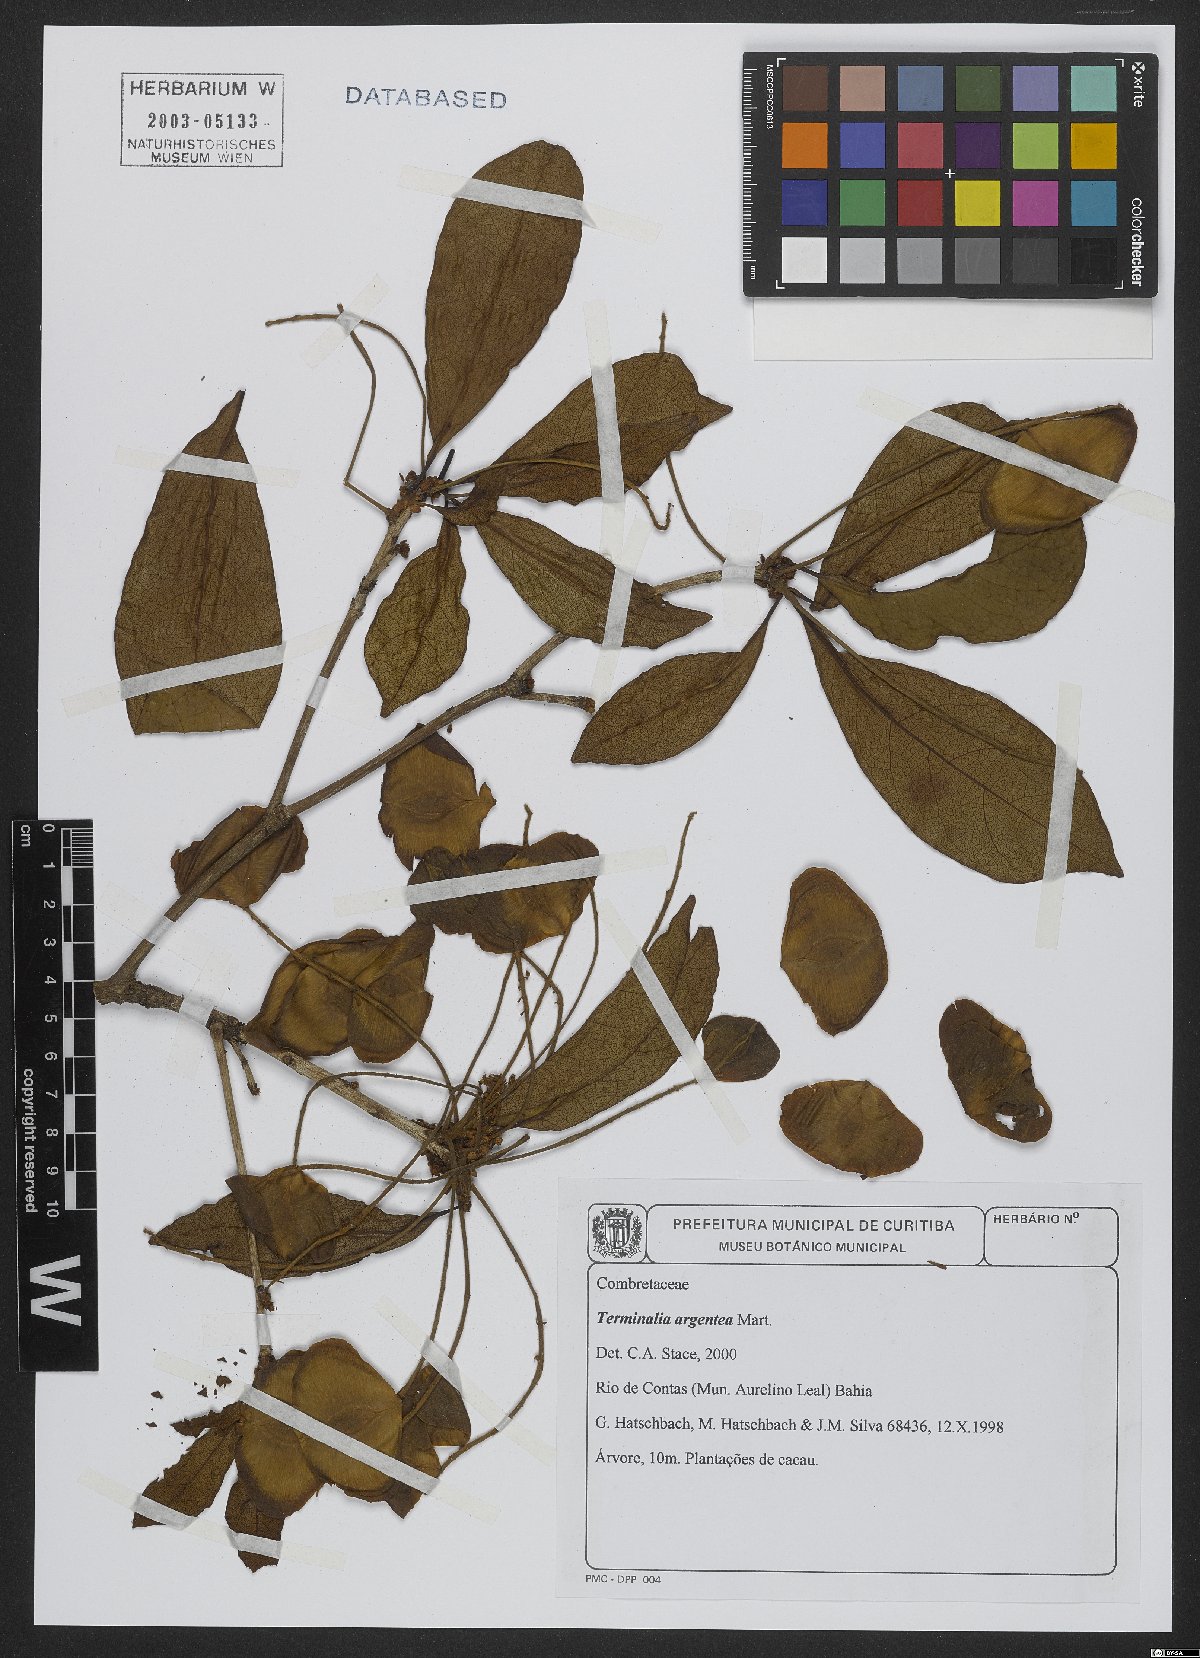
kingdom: Plantae
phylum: Tracheophyta
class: Magnoliopsida
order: Myrtales
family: Combretaceae
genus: Terminalia
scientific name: Terminalia argentea
